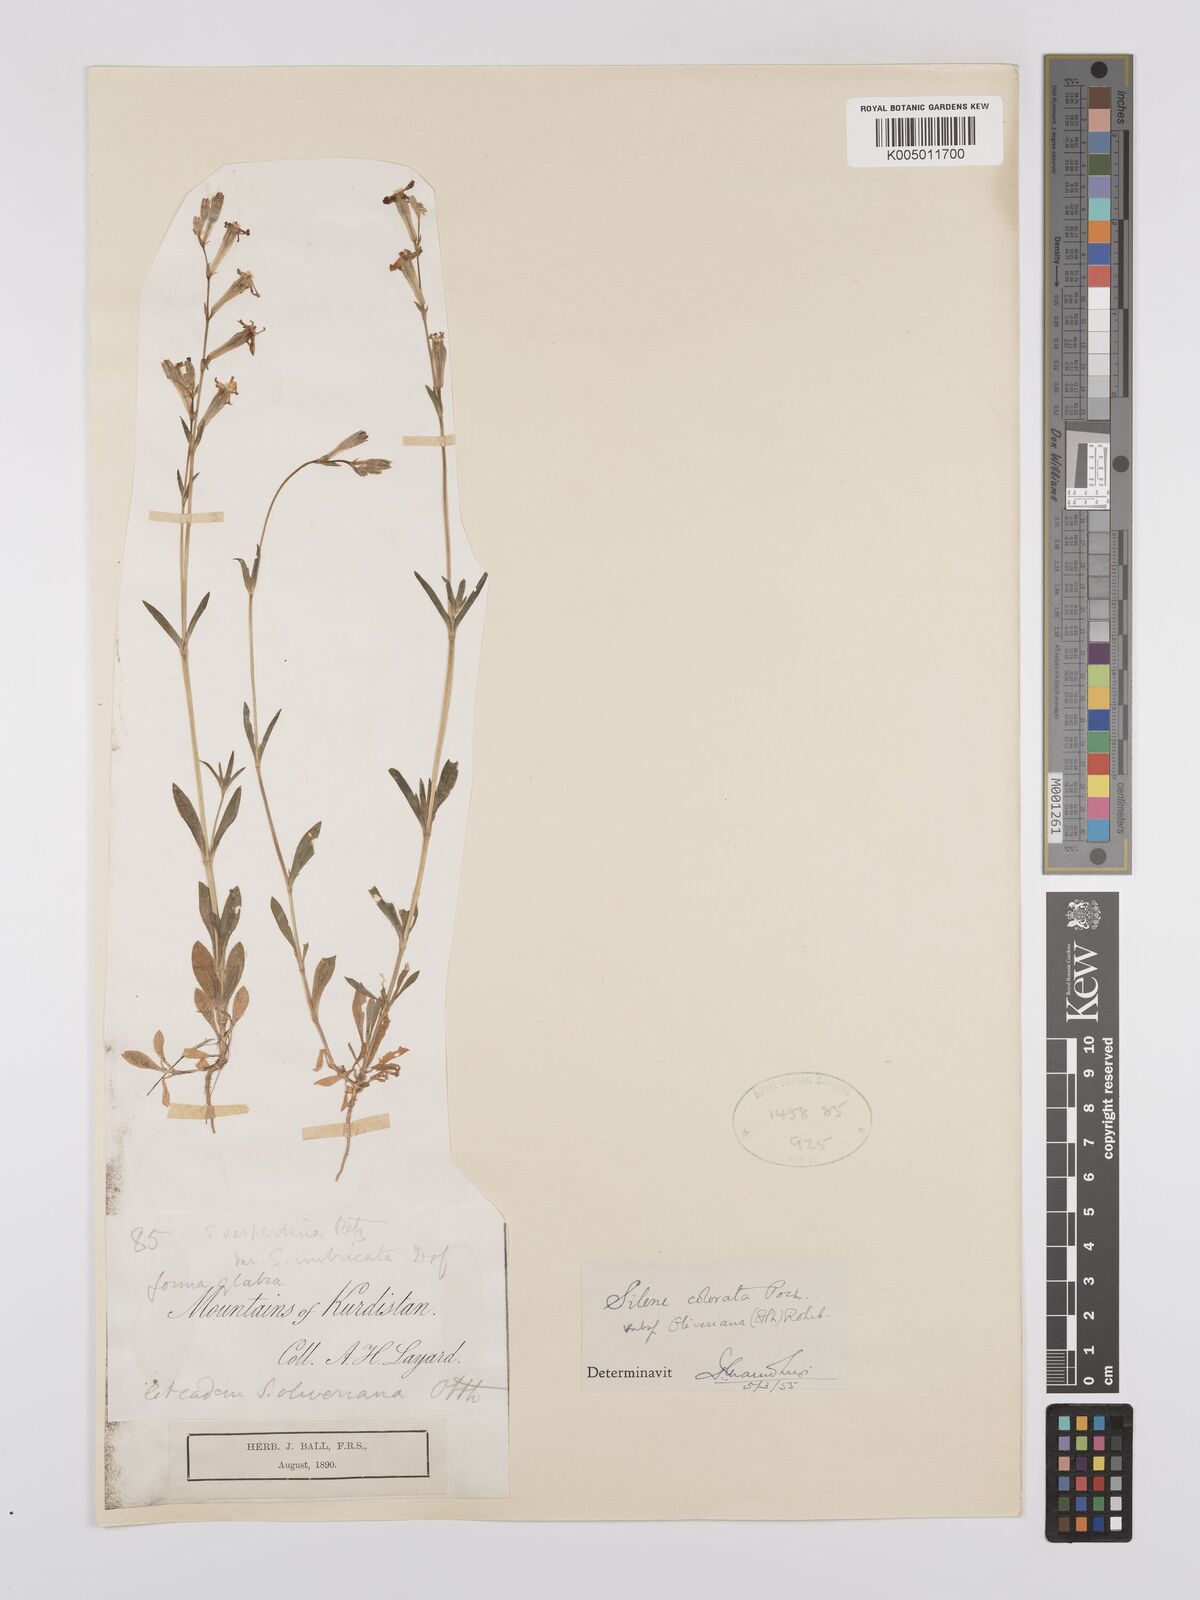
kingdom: Plantae
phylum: Tracheophyta
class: Magnoliopsida
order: Caryophyllales
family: Caryophyllaceae
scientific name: Caryophyllaceae
